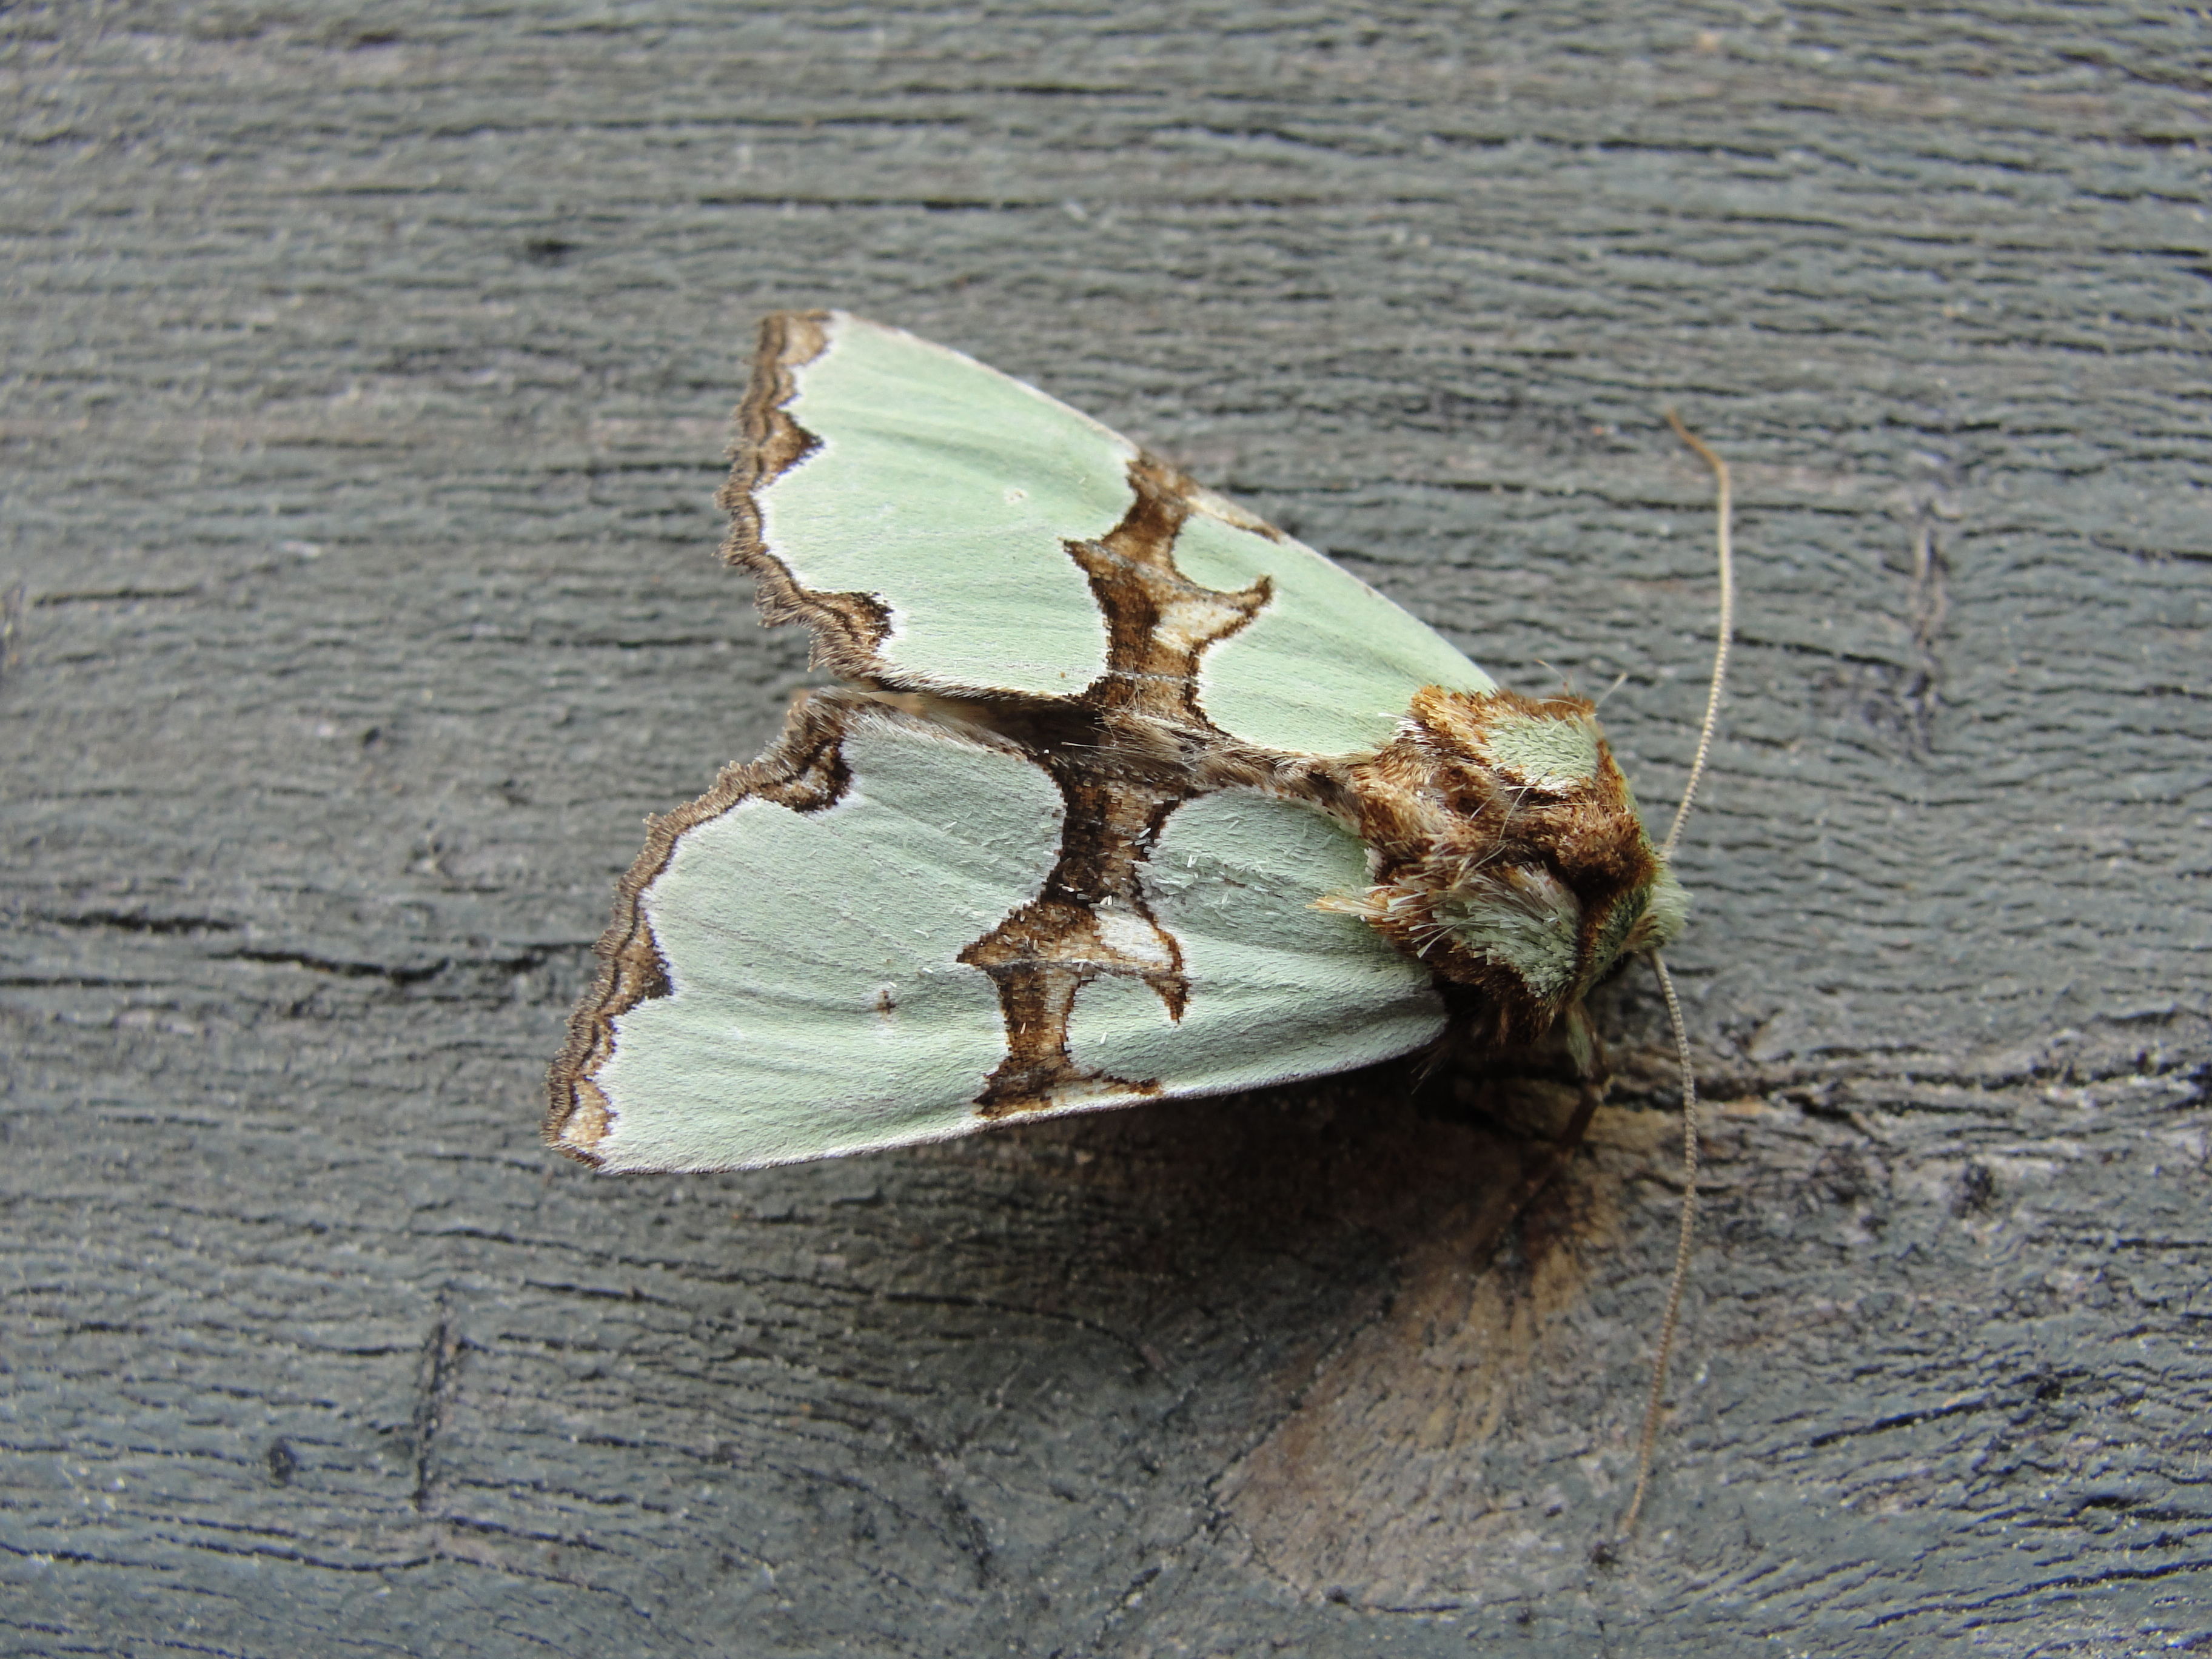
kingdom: Animalia
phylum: Arthropoda
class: Insecta
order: Lepidoptera
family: Noctuidae
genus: Staurophora
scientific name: Staurophora celsia
